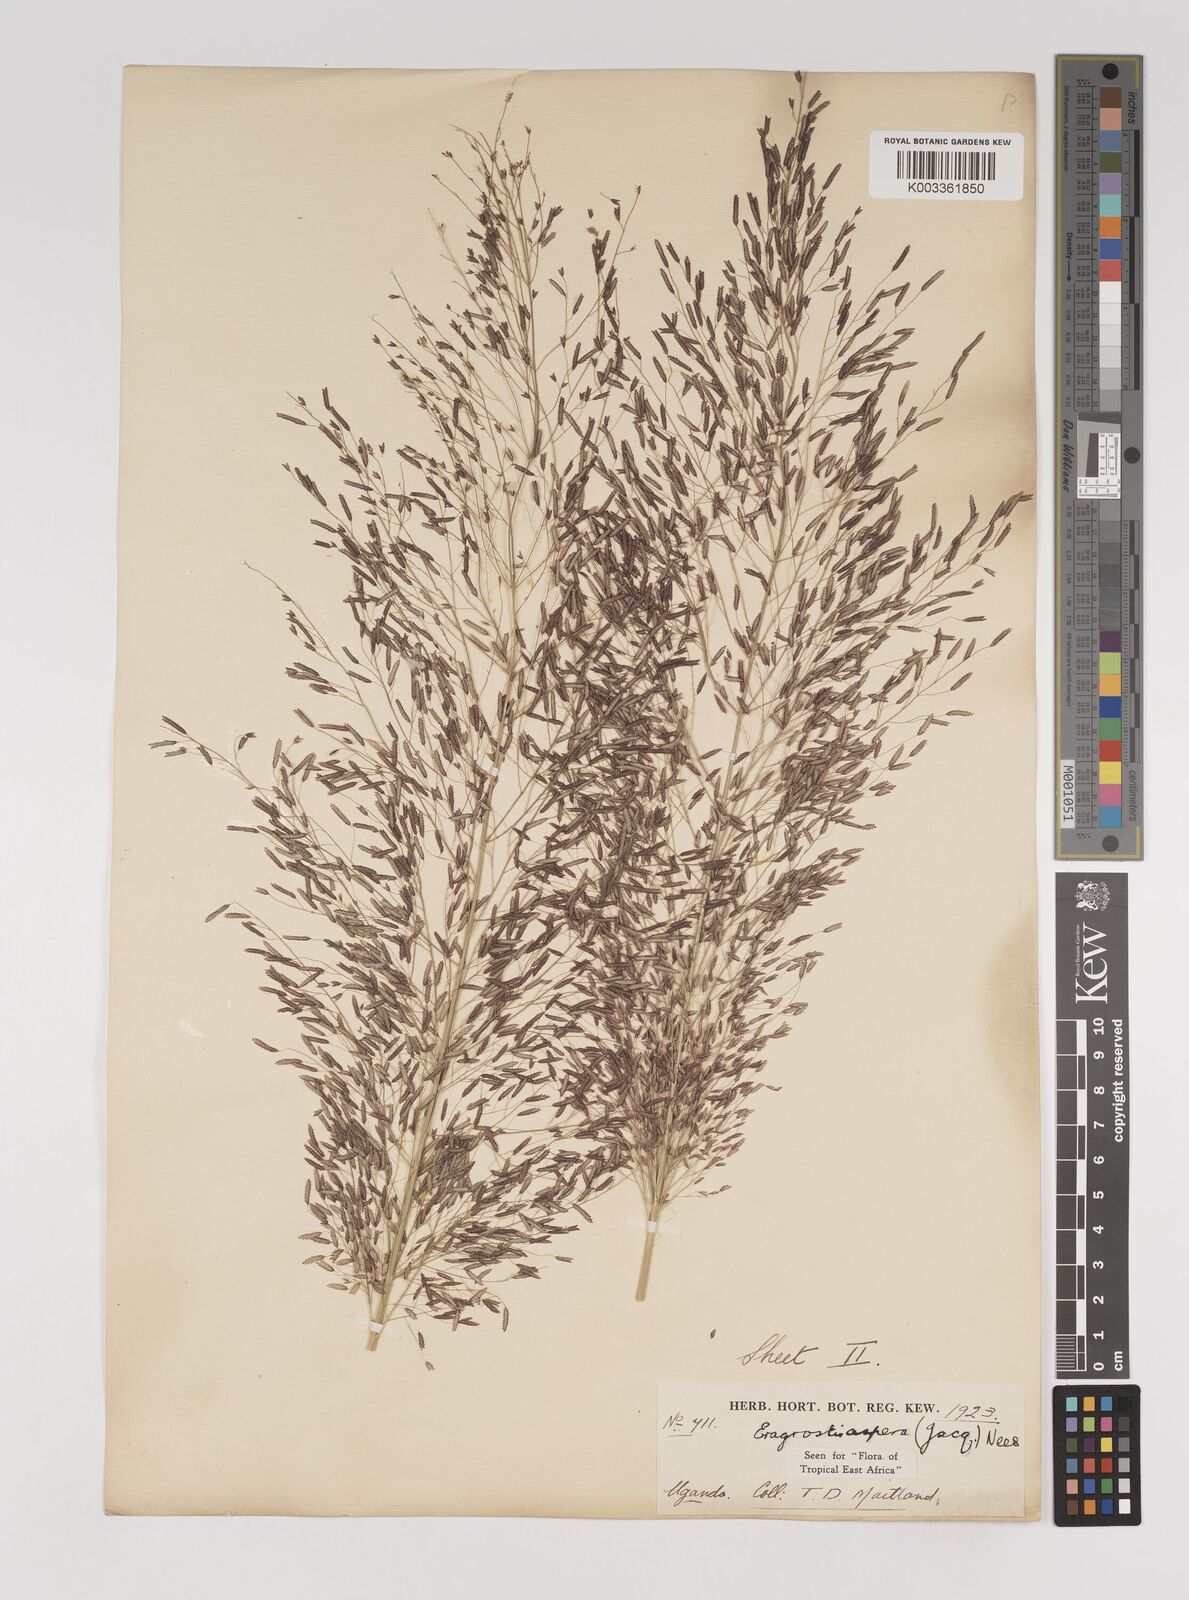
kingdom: Plantae
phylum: Tracheophyta
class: Liliopsida
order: Poales
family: Poaceae
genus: Eragrostis
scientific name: Eragrostis aspera
